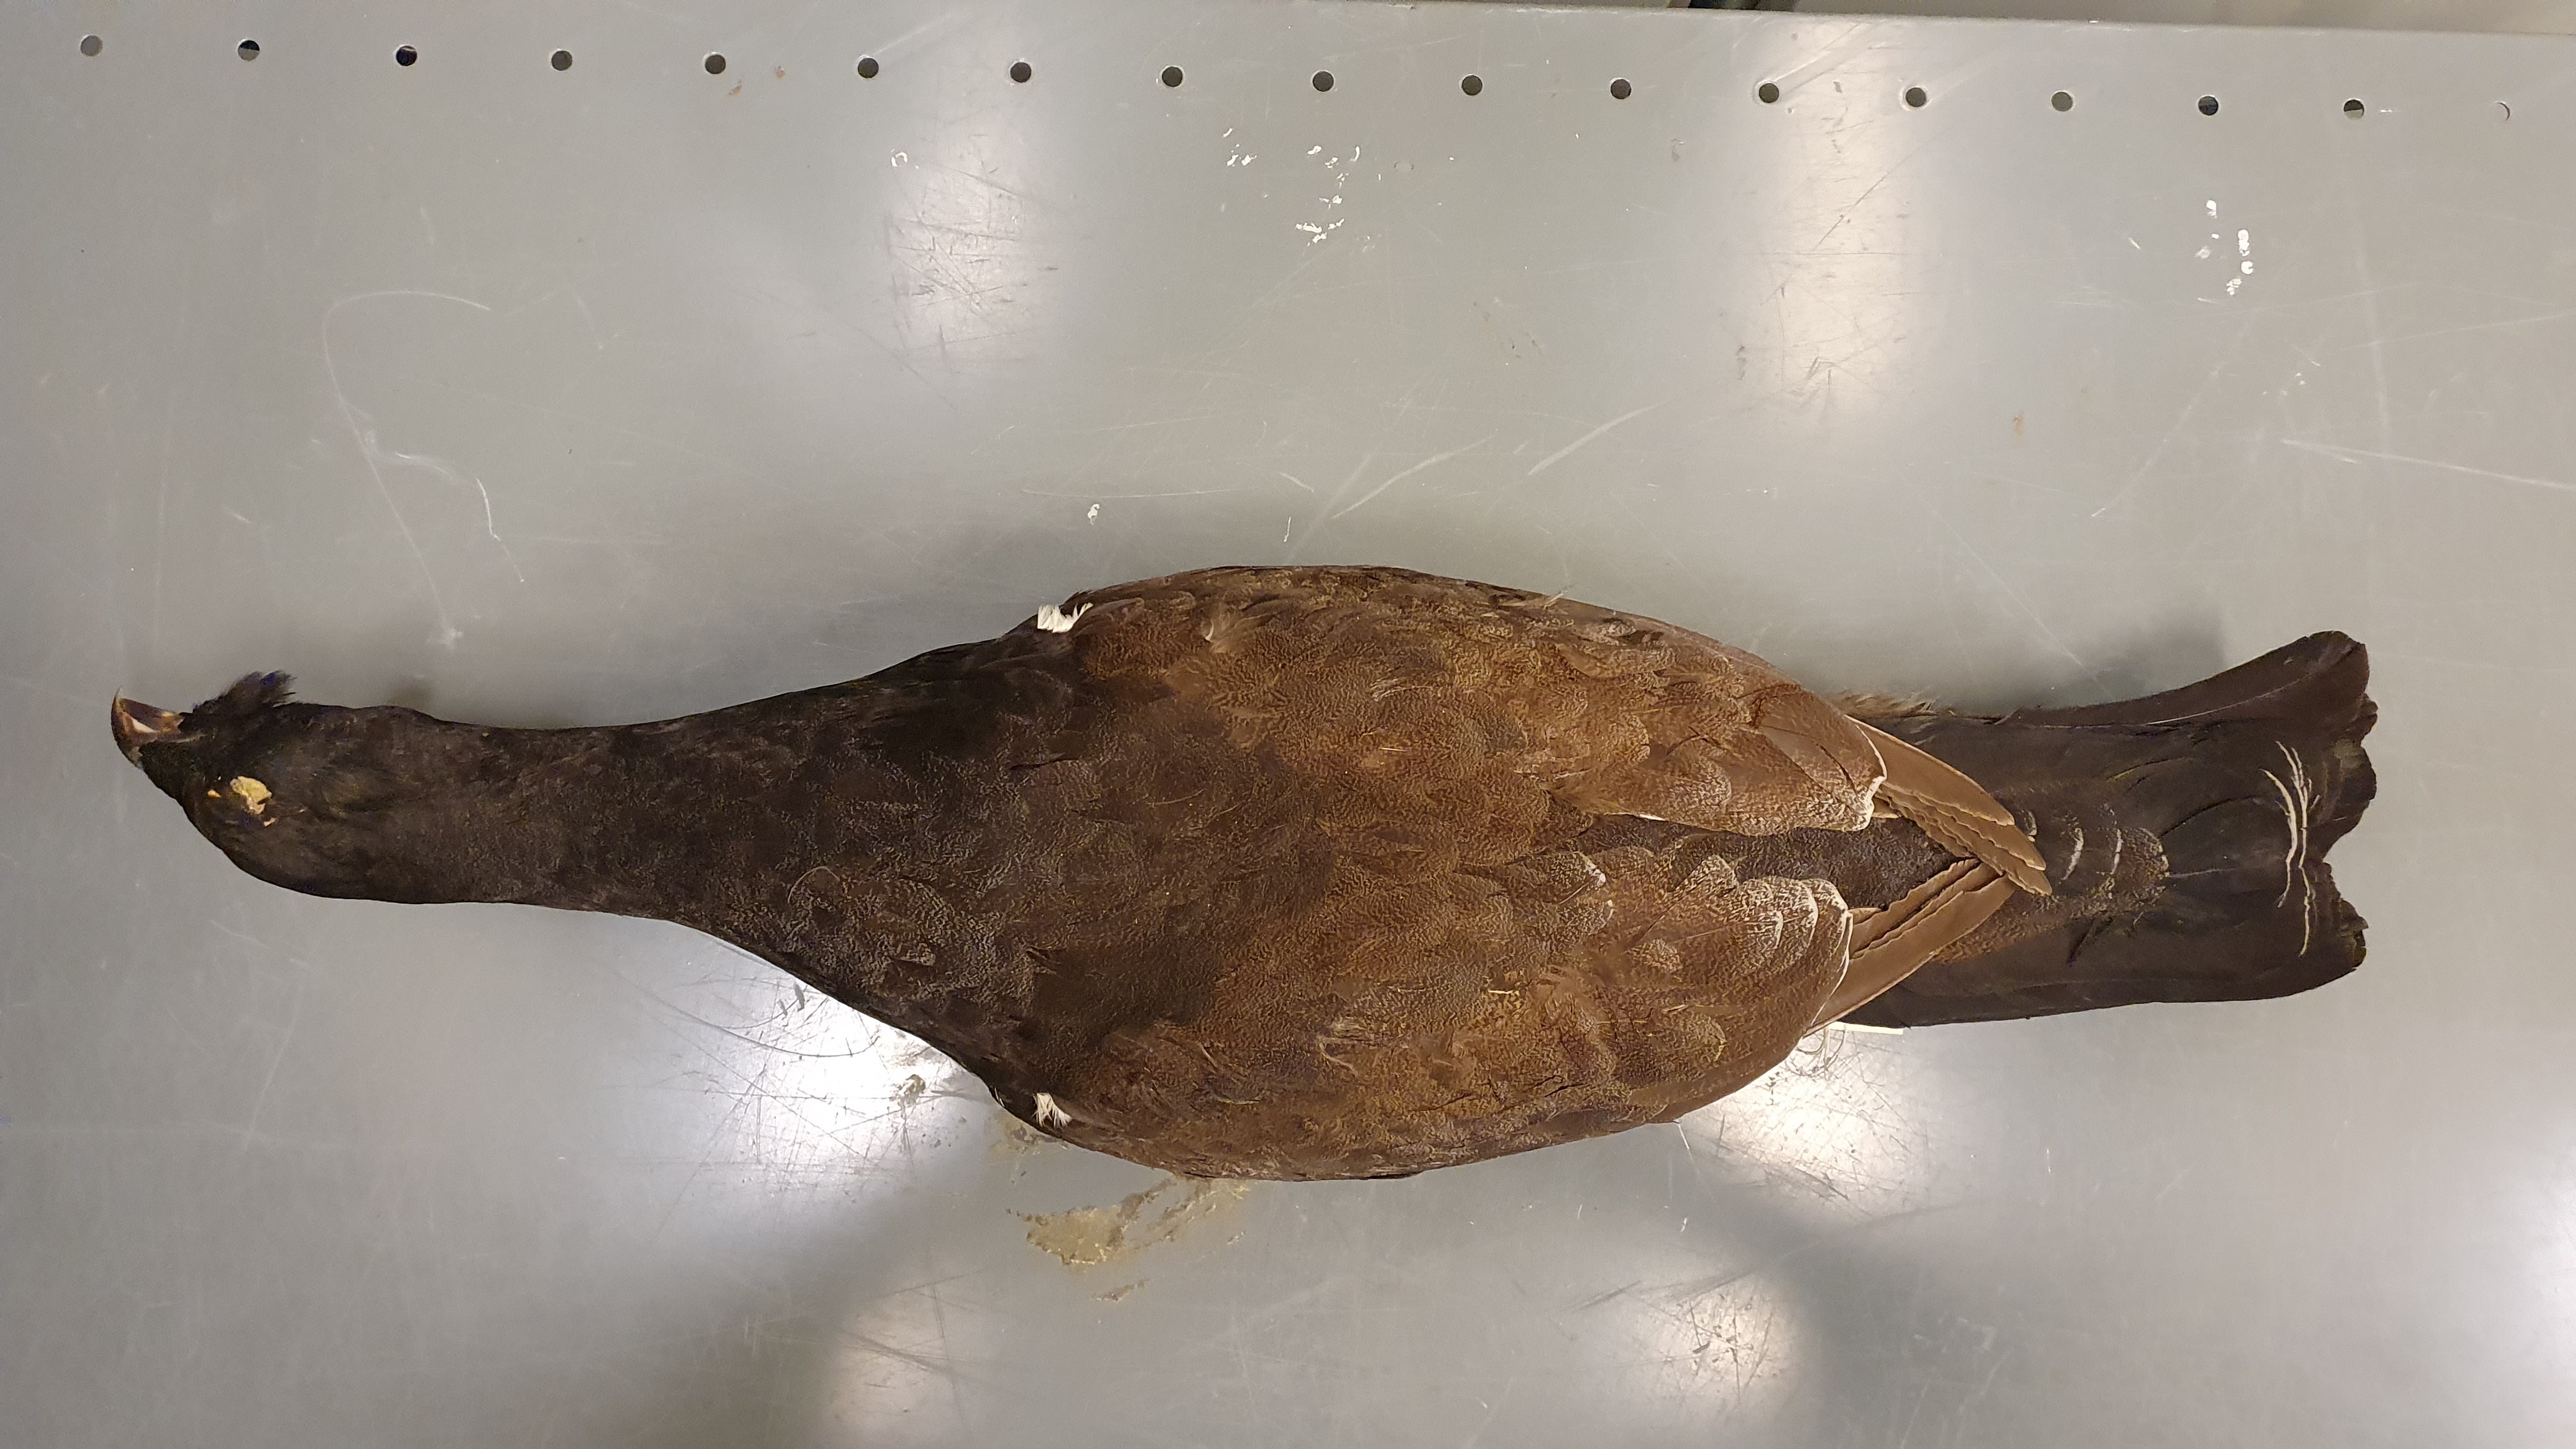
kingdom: Animalia
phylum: Chordata
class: Aves
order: Galliformes
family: Phasianidae
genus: Lyrurus
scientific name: Lyrurus
